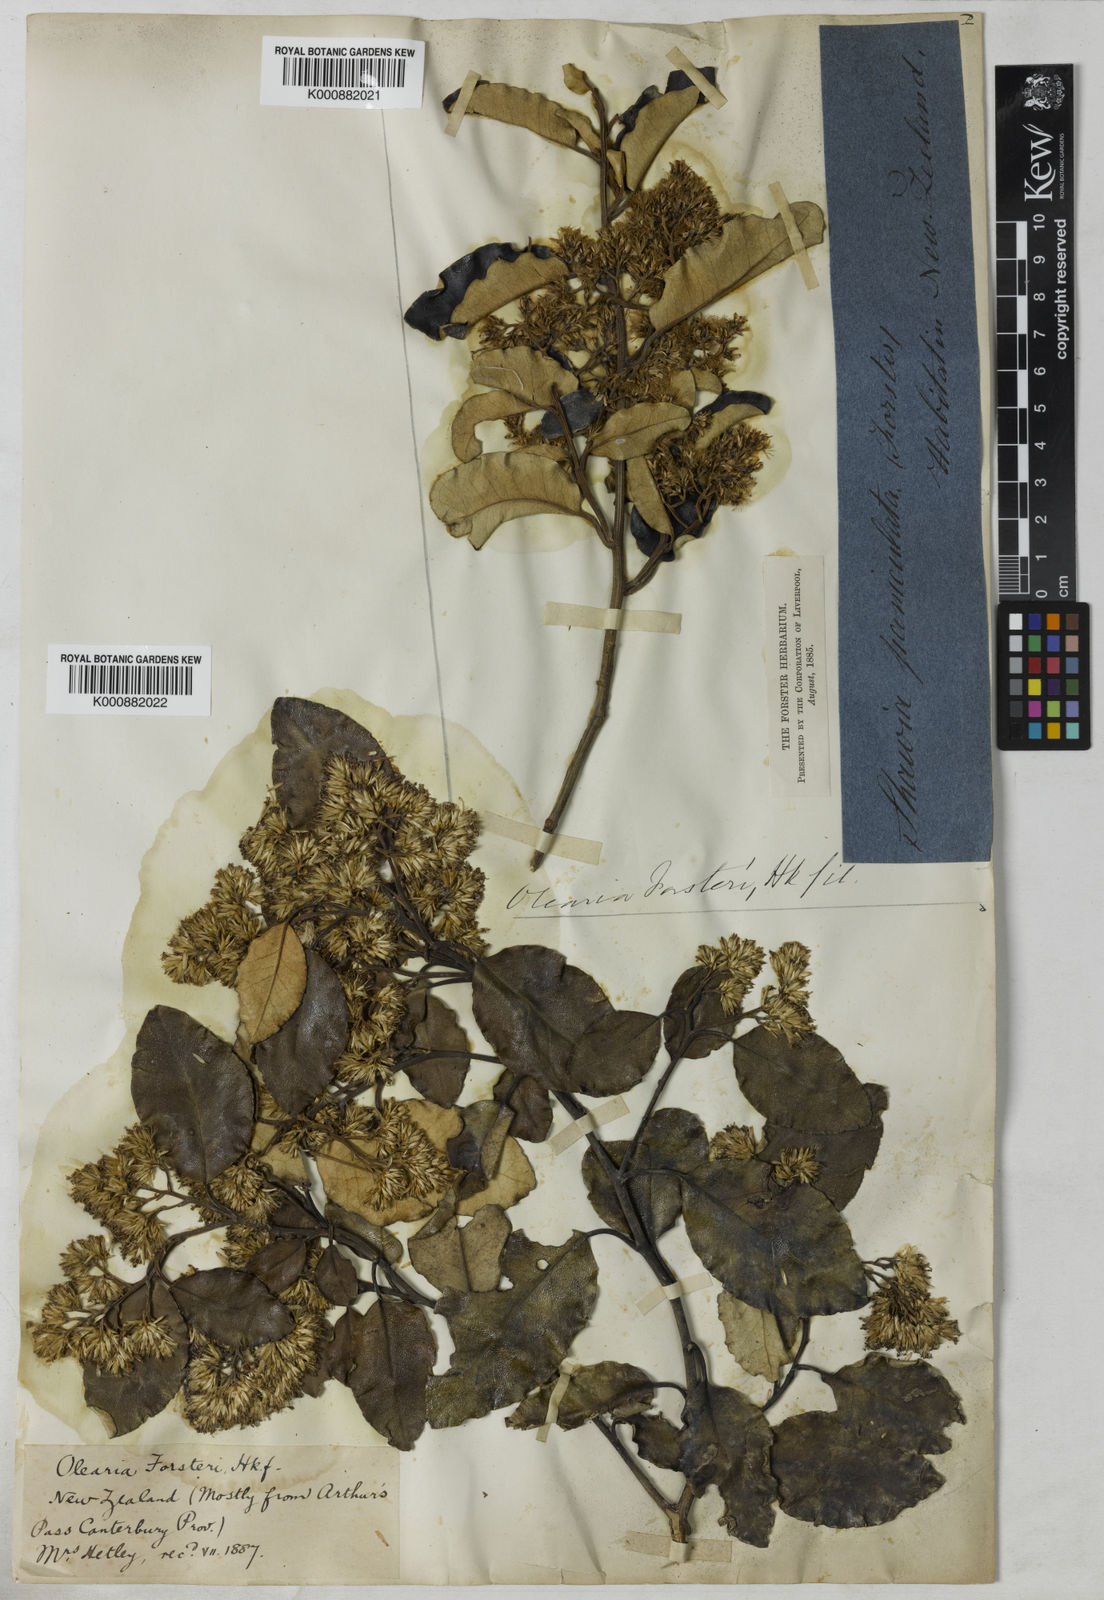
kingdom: Plantae
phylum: Tracheophyta
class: Magnoliopsida
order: Asterales
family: Asteraceae
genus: Olearia
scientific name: Olearia paniculata
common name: Akiraho
